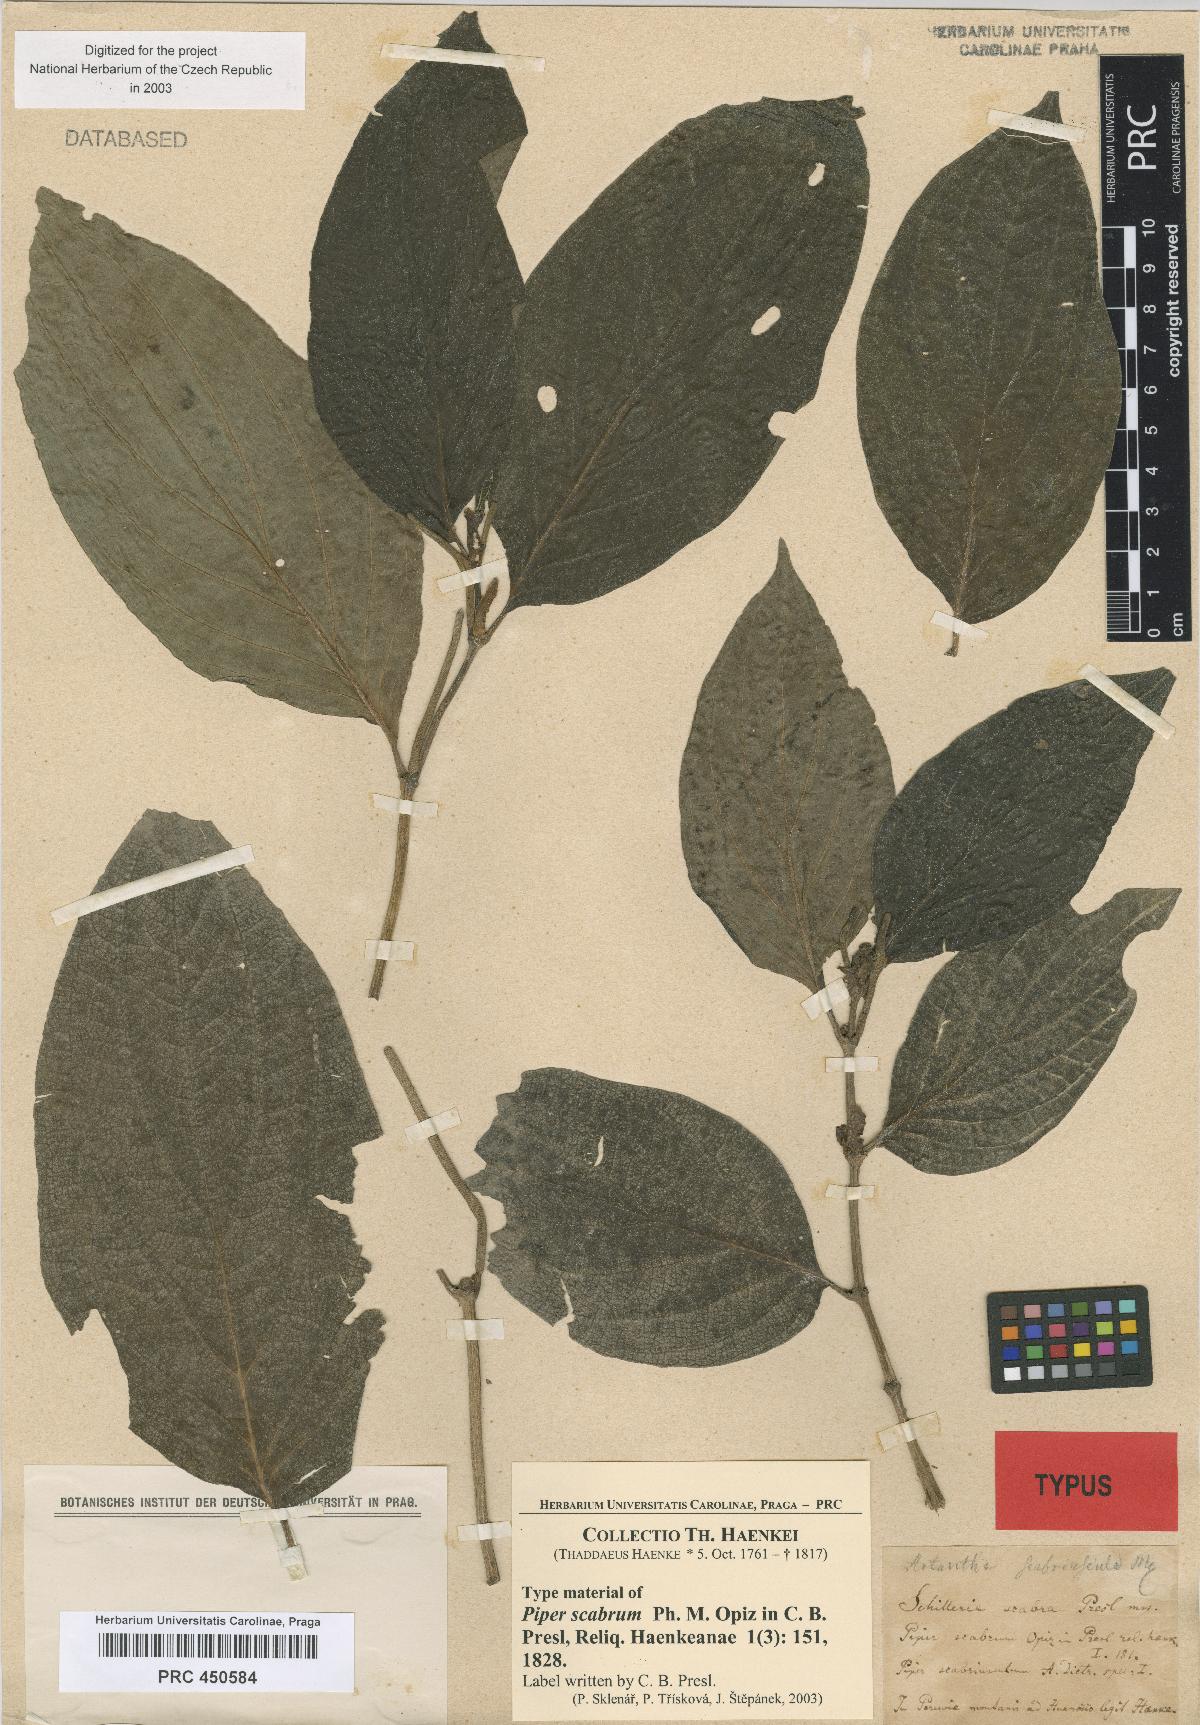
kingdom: Plantae
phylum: Tracheophyta
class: Magnoliopsida
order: Piperales
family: Piperaceae
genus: Piper
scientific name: Piper scabriusculum
